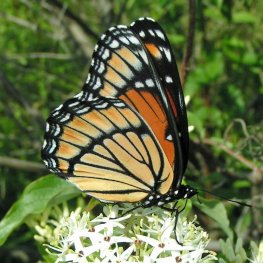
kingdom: Animalia
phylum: Arthropoda
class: Insecta
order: Lepidoptera
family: Nymphalidae
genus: Limenitis
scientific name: Limenitis archippus
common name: Viceroy
